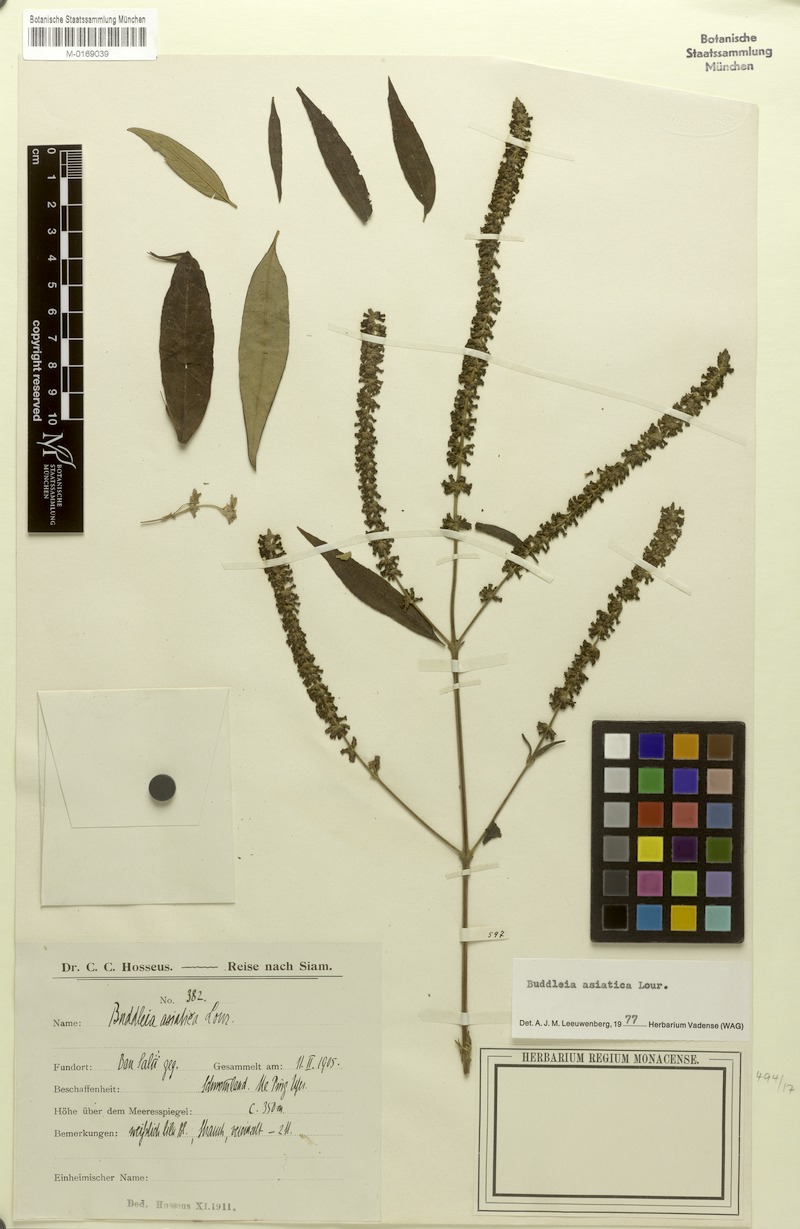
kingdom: Plantae
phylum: Tracheophyta
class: Magnoliopsida
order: Lamiales
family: Scrophulariaceae
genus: Buddleja
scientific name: Buddleja asiatica
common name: Dog tail
